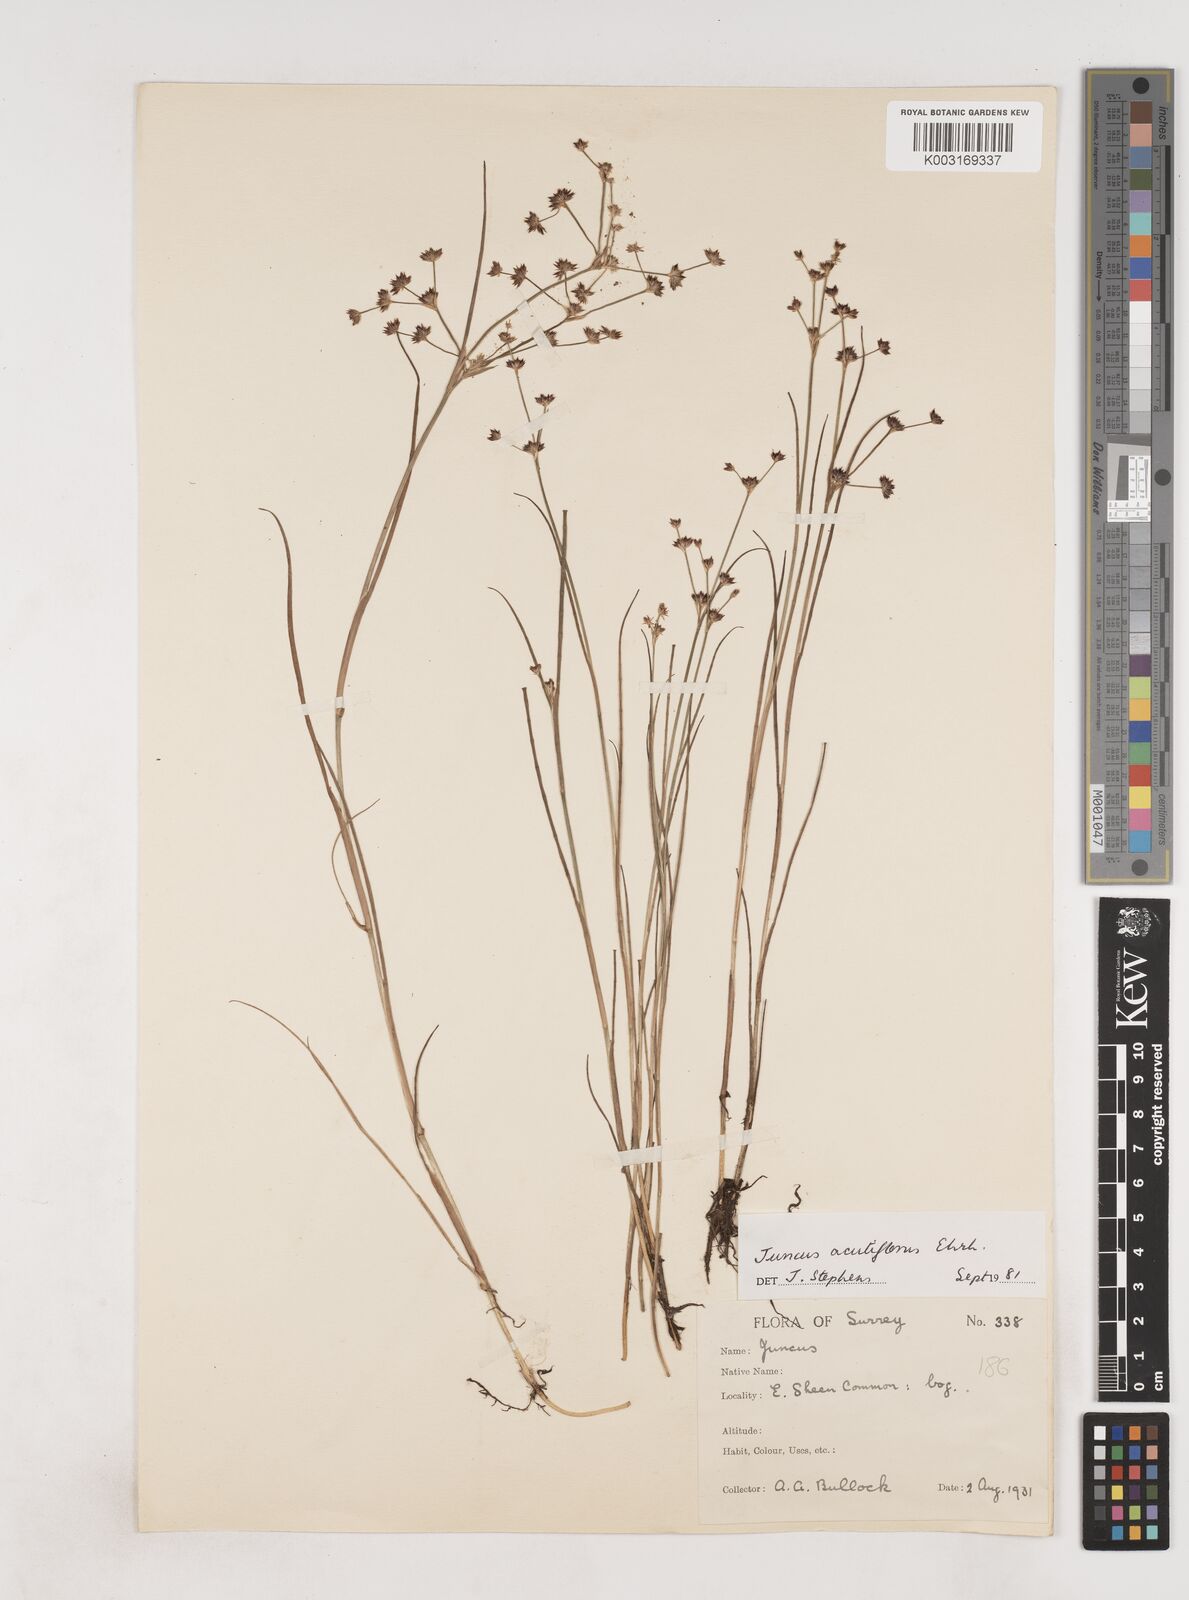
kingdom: Plantae
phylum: Tracheophyta
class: Liliopsida
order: Poales
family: Juncaceae
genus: Juncus
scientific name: Juncus acutiflorus
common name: Sharp-flowered rush
